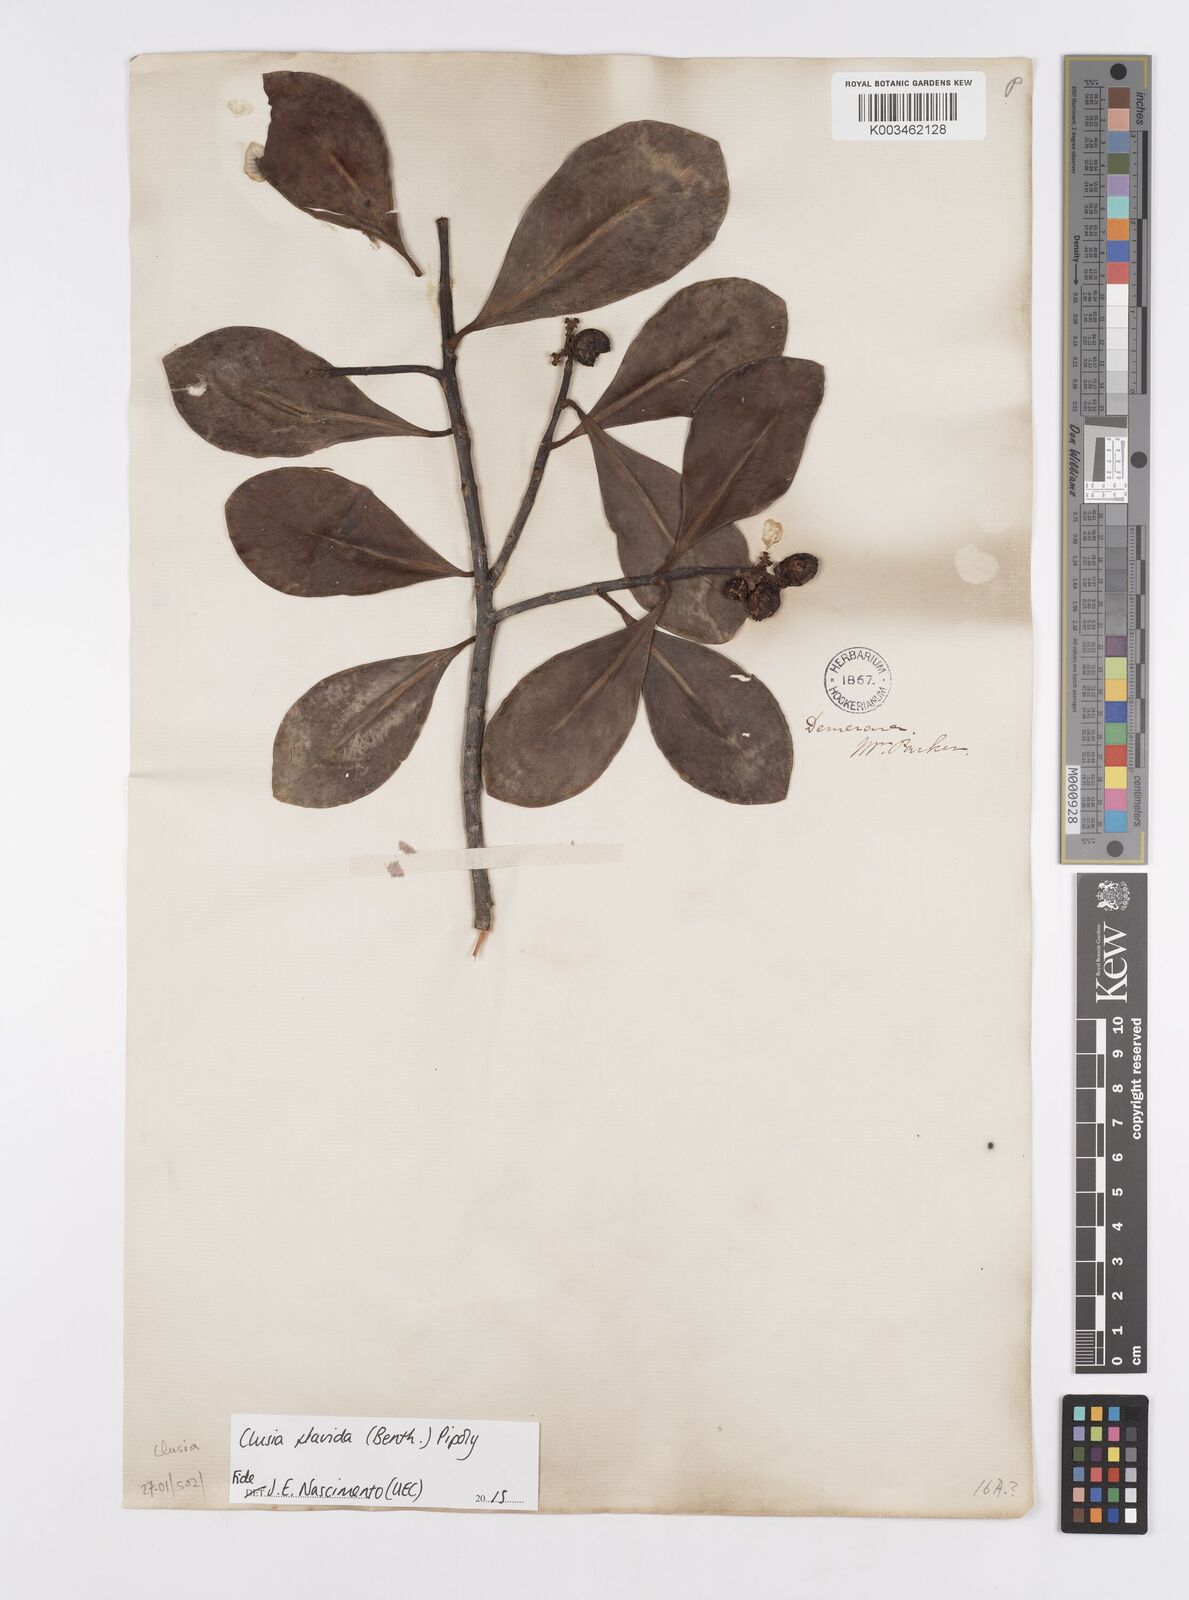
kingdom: Plantae
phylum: Tracheophyta
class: Magnoliopsida
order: Malpighiales
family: Clusiaceae
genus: Clusia
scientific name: Clusia flavida
